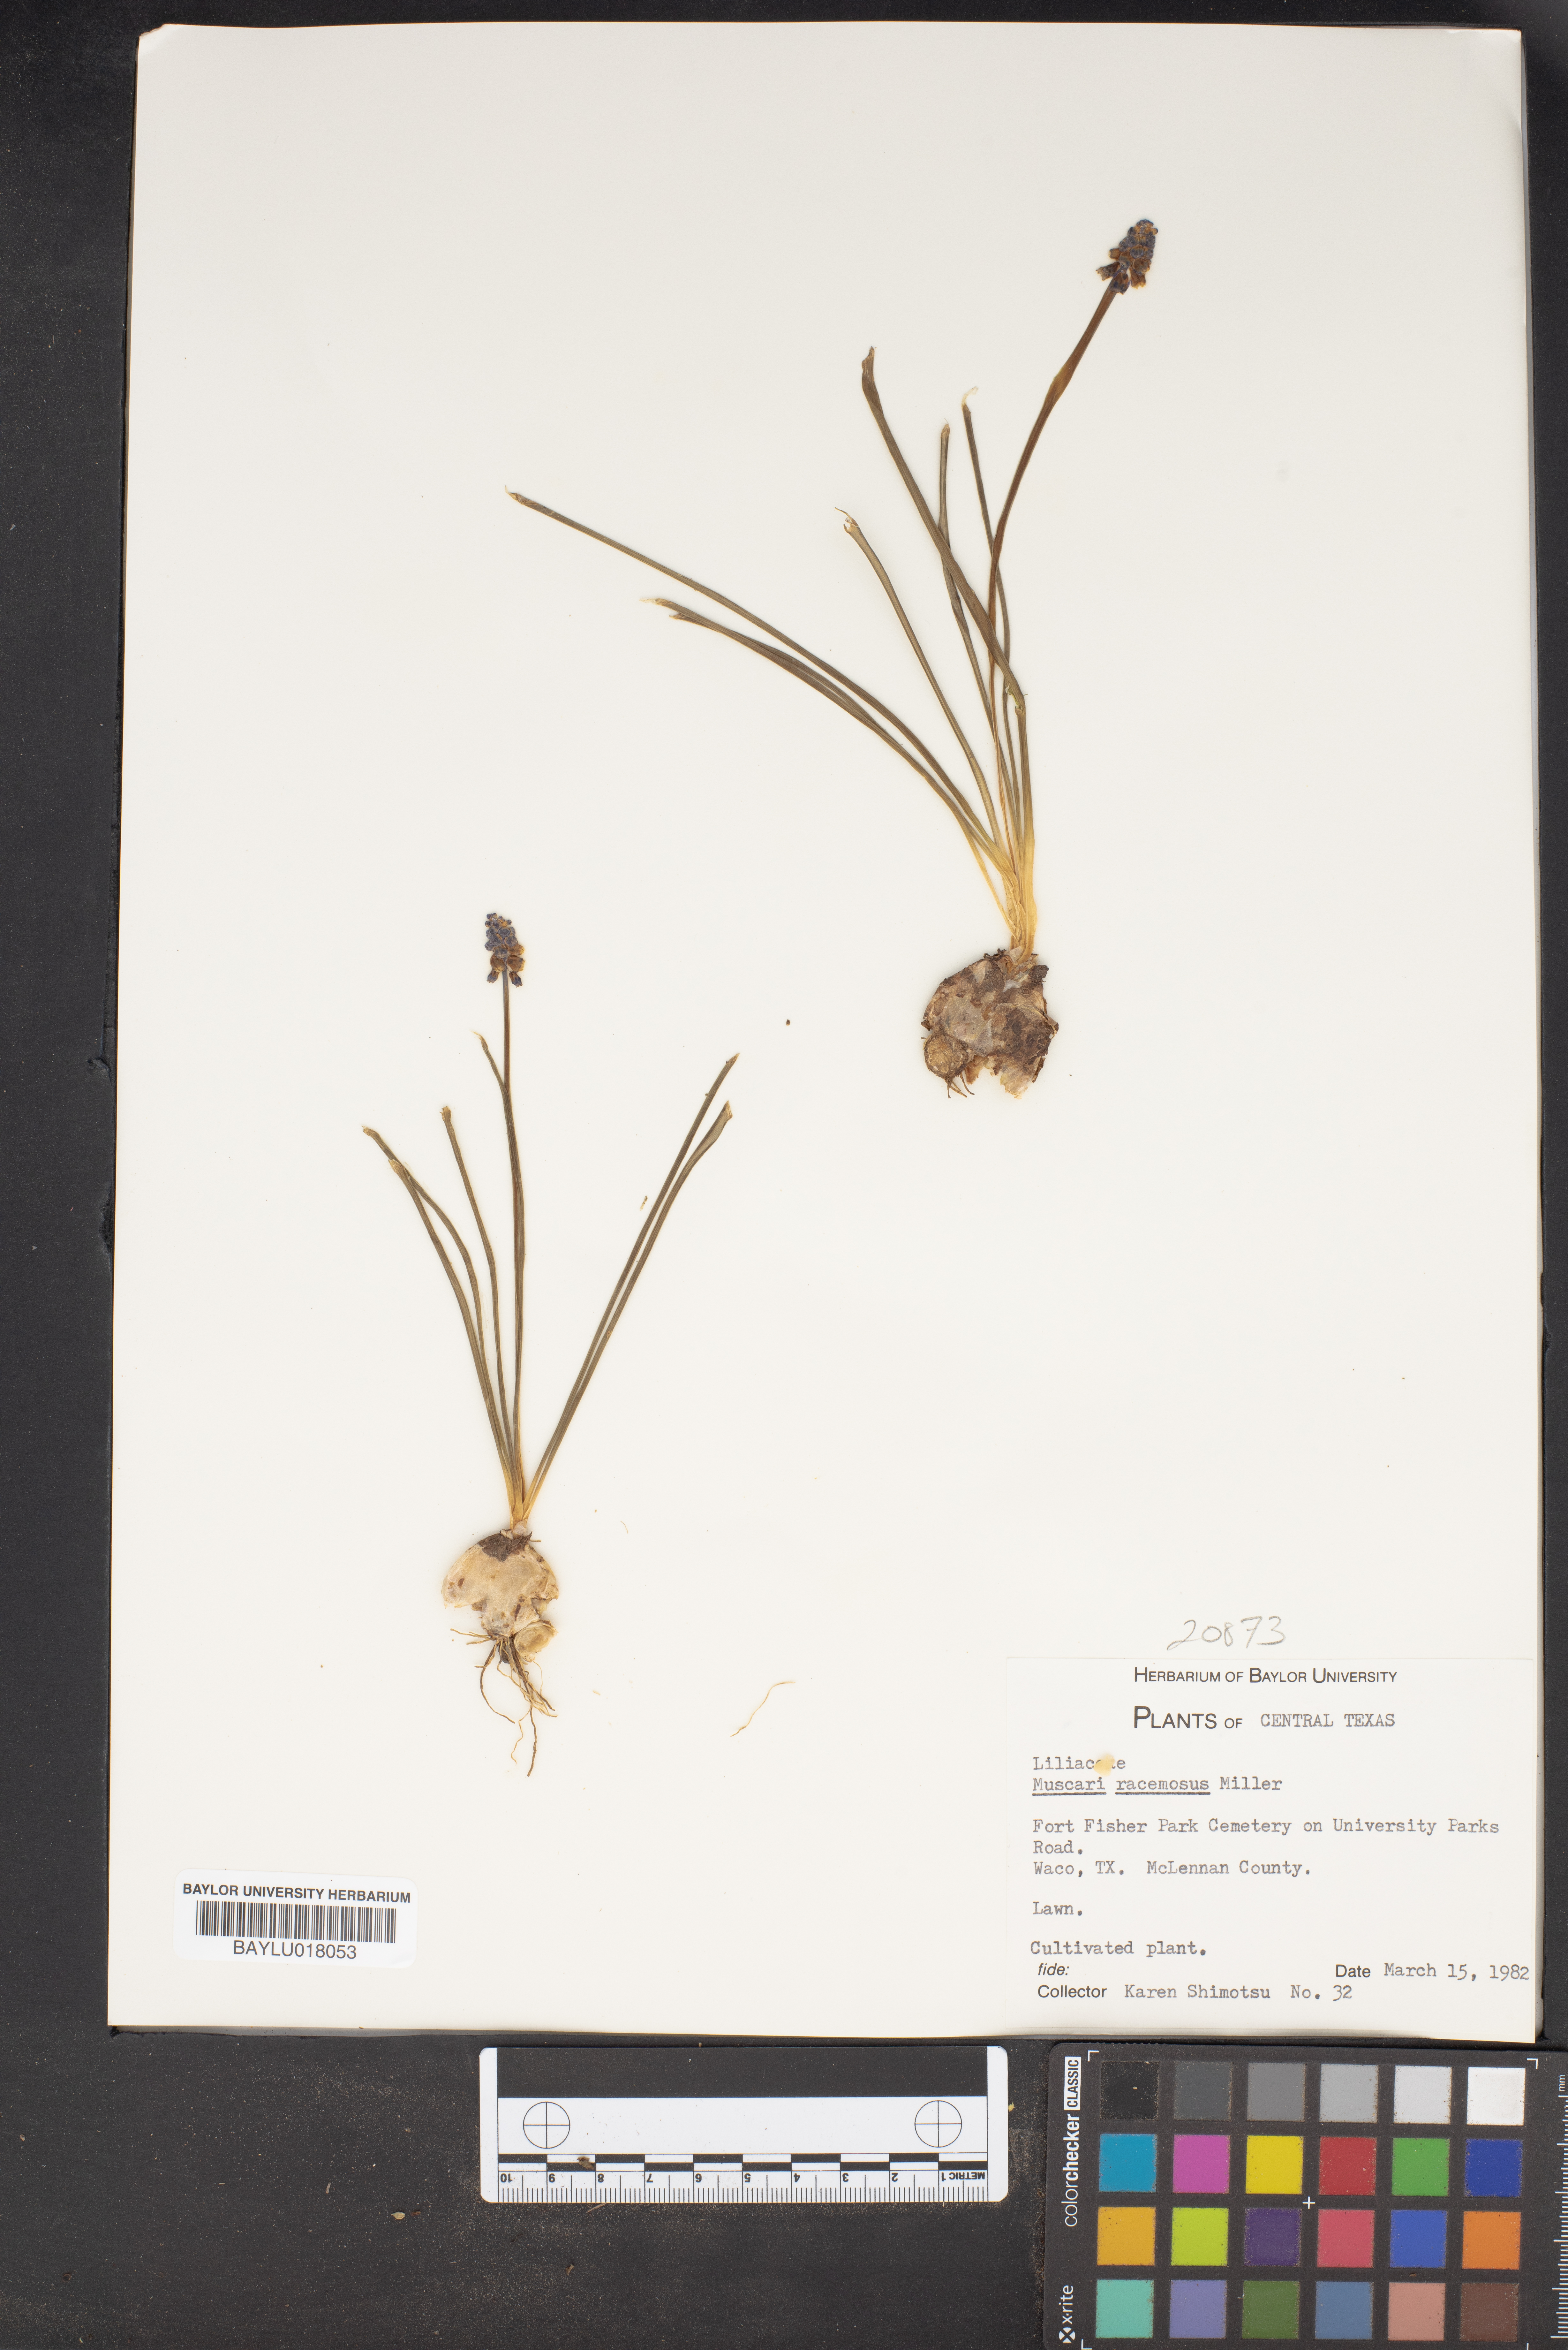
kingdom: Plantae
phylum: Tracheophyta
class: Liliopsida
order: Asparagales
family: Asparagaceae
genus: Muscarimia
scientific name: Muscarimia muscari
